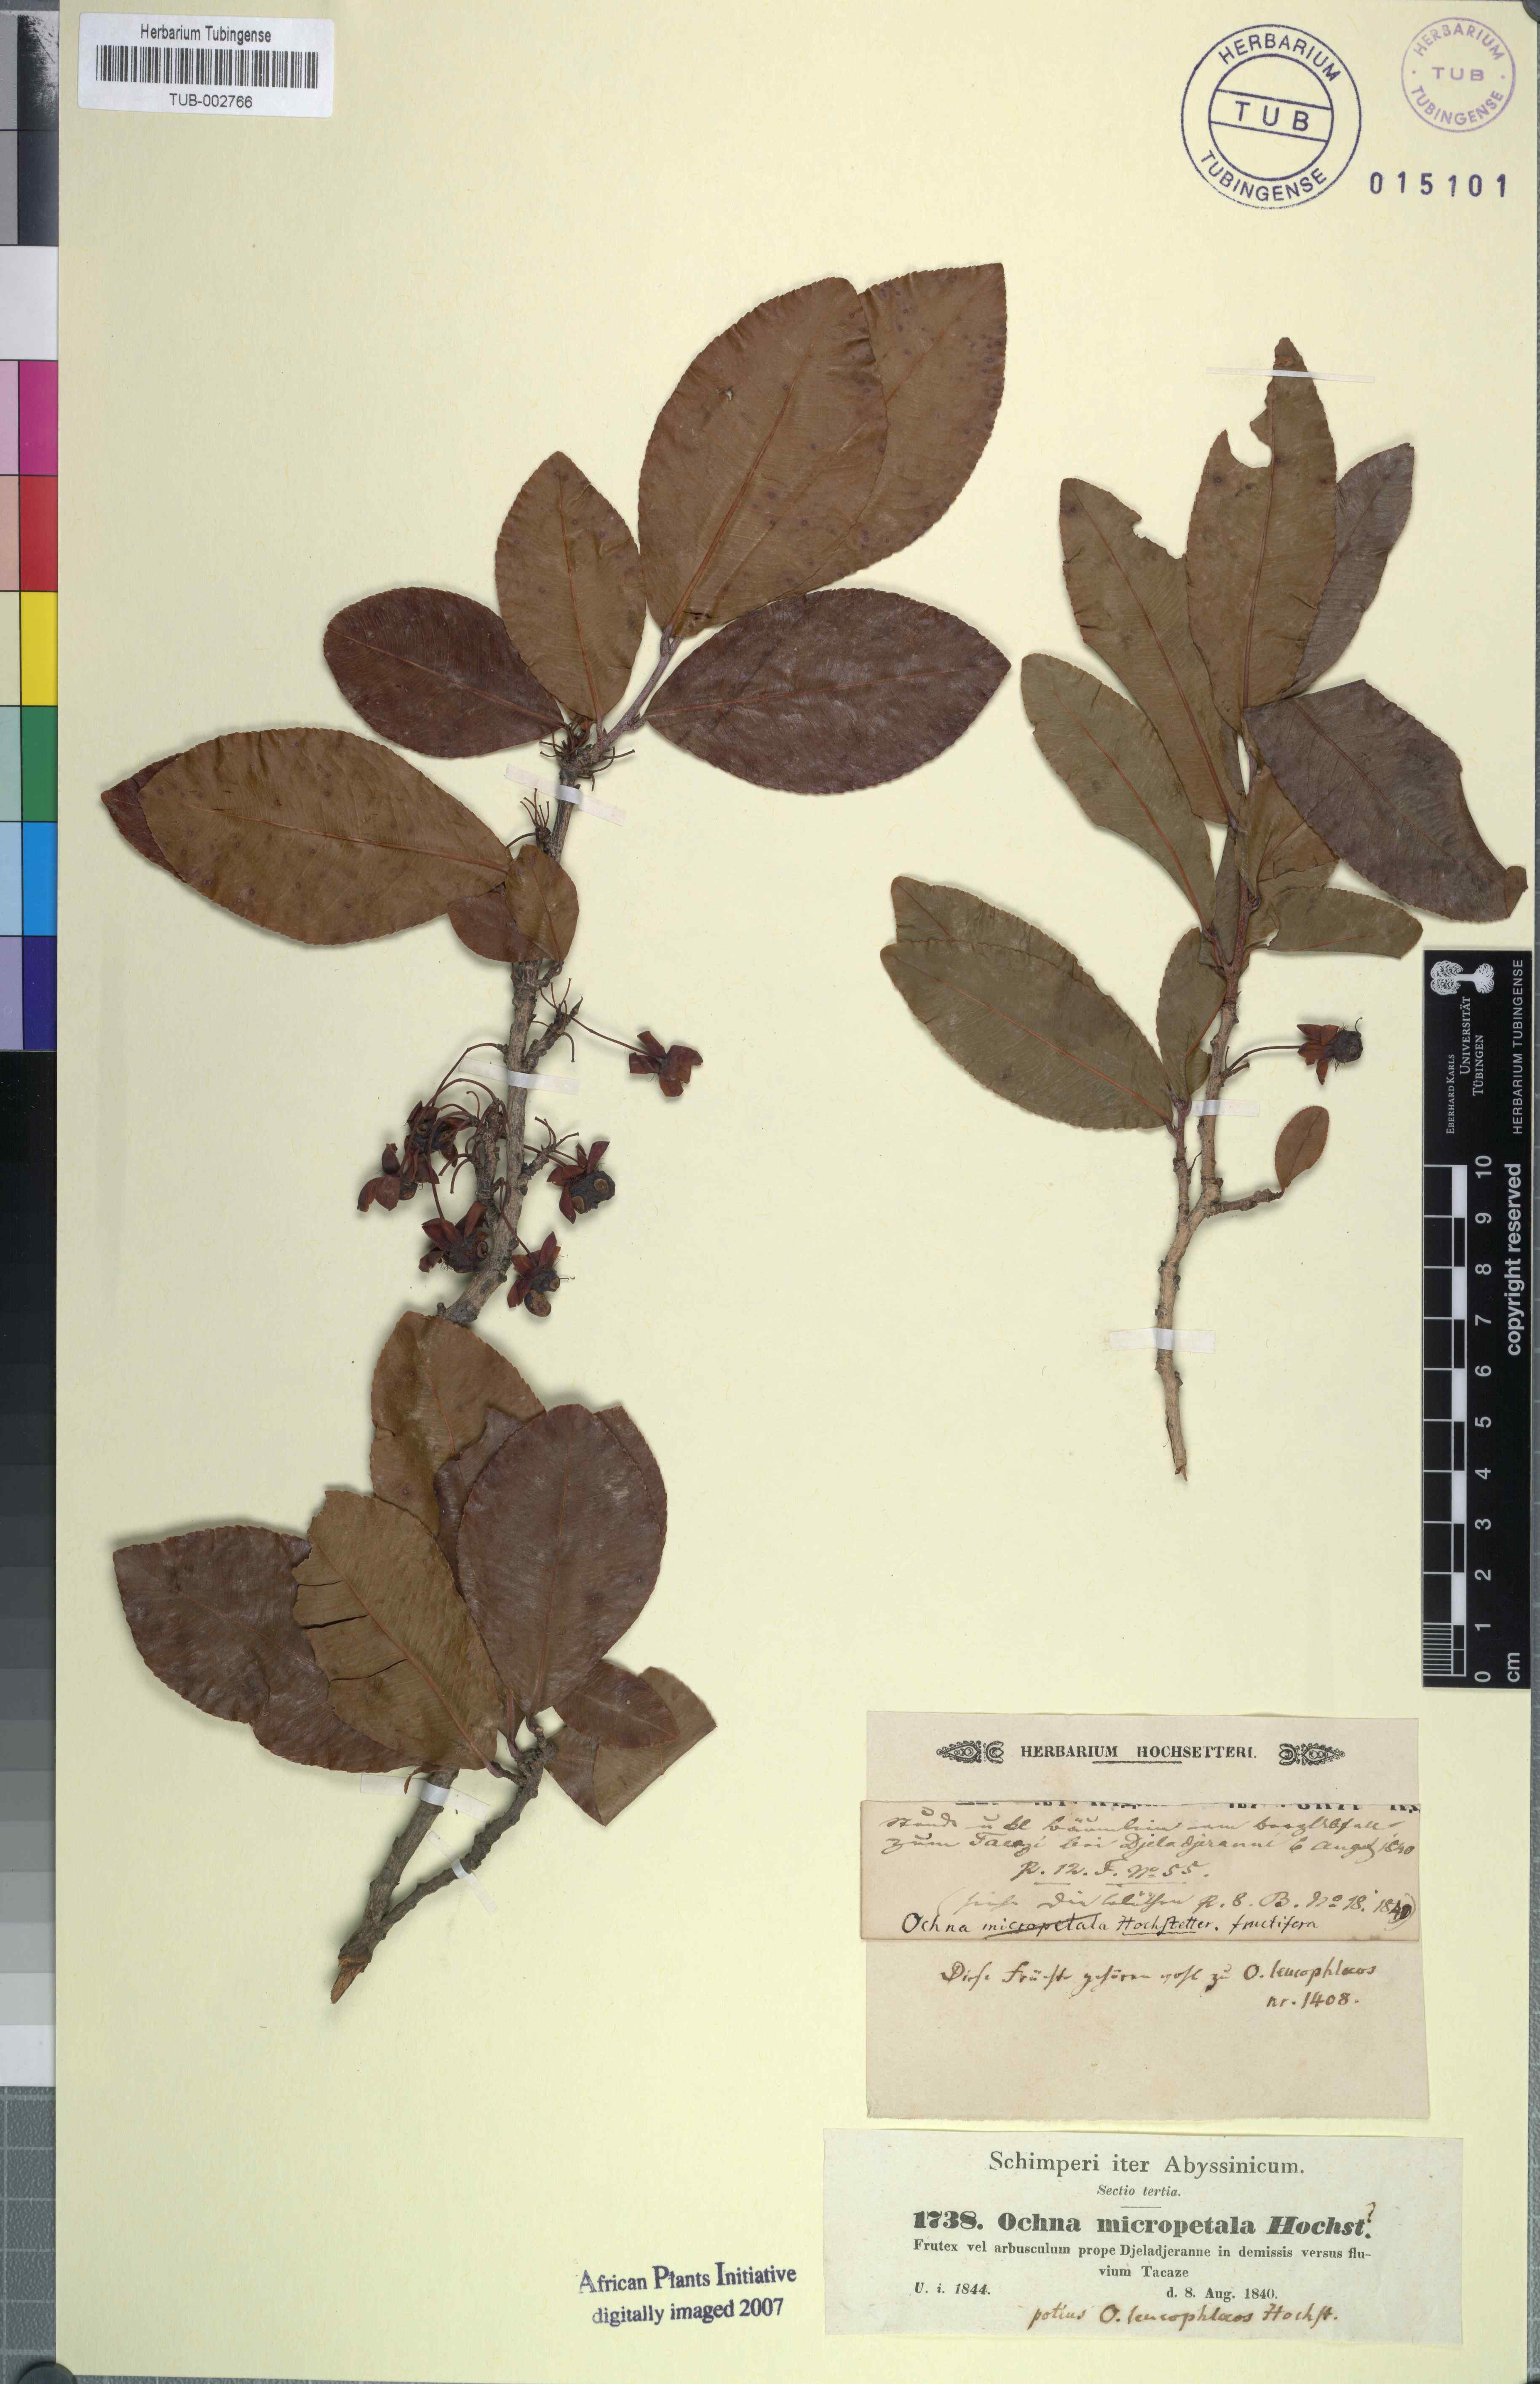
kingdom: Plantae
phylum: Tracheophyta
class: Magnoliopsida
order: Malpighiales
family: Ochnaceae
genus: Ochna
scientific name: Ochna leucophloeos
